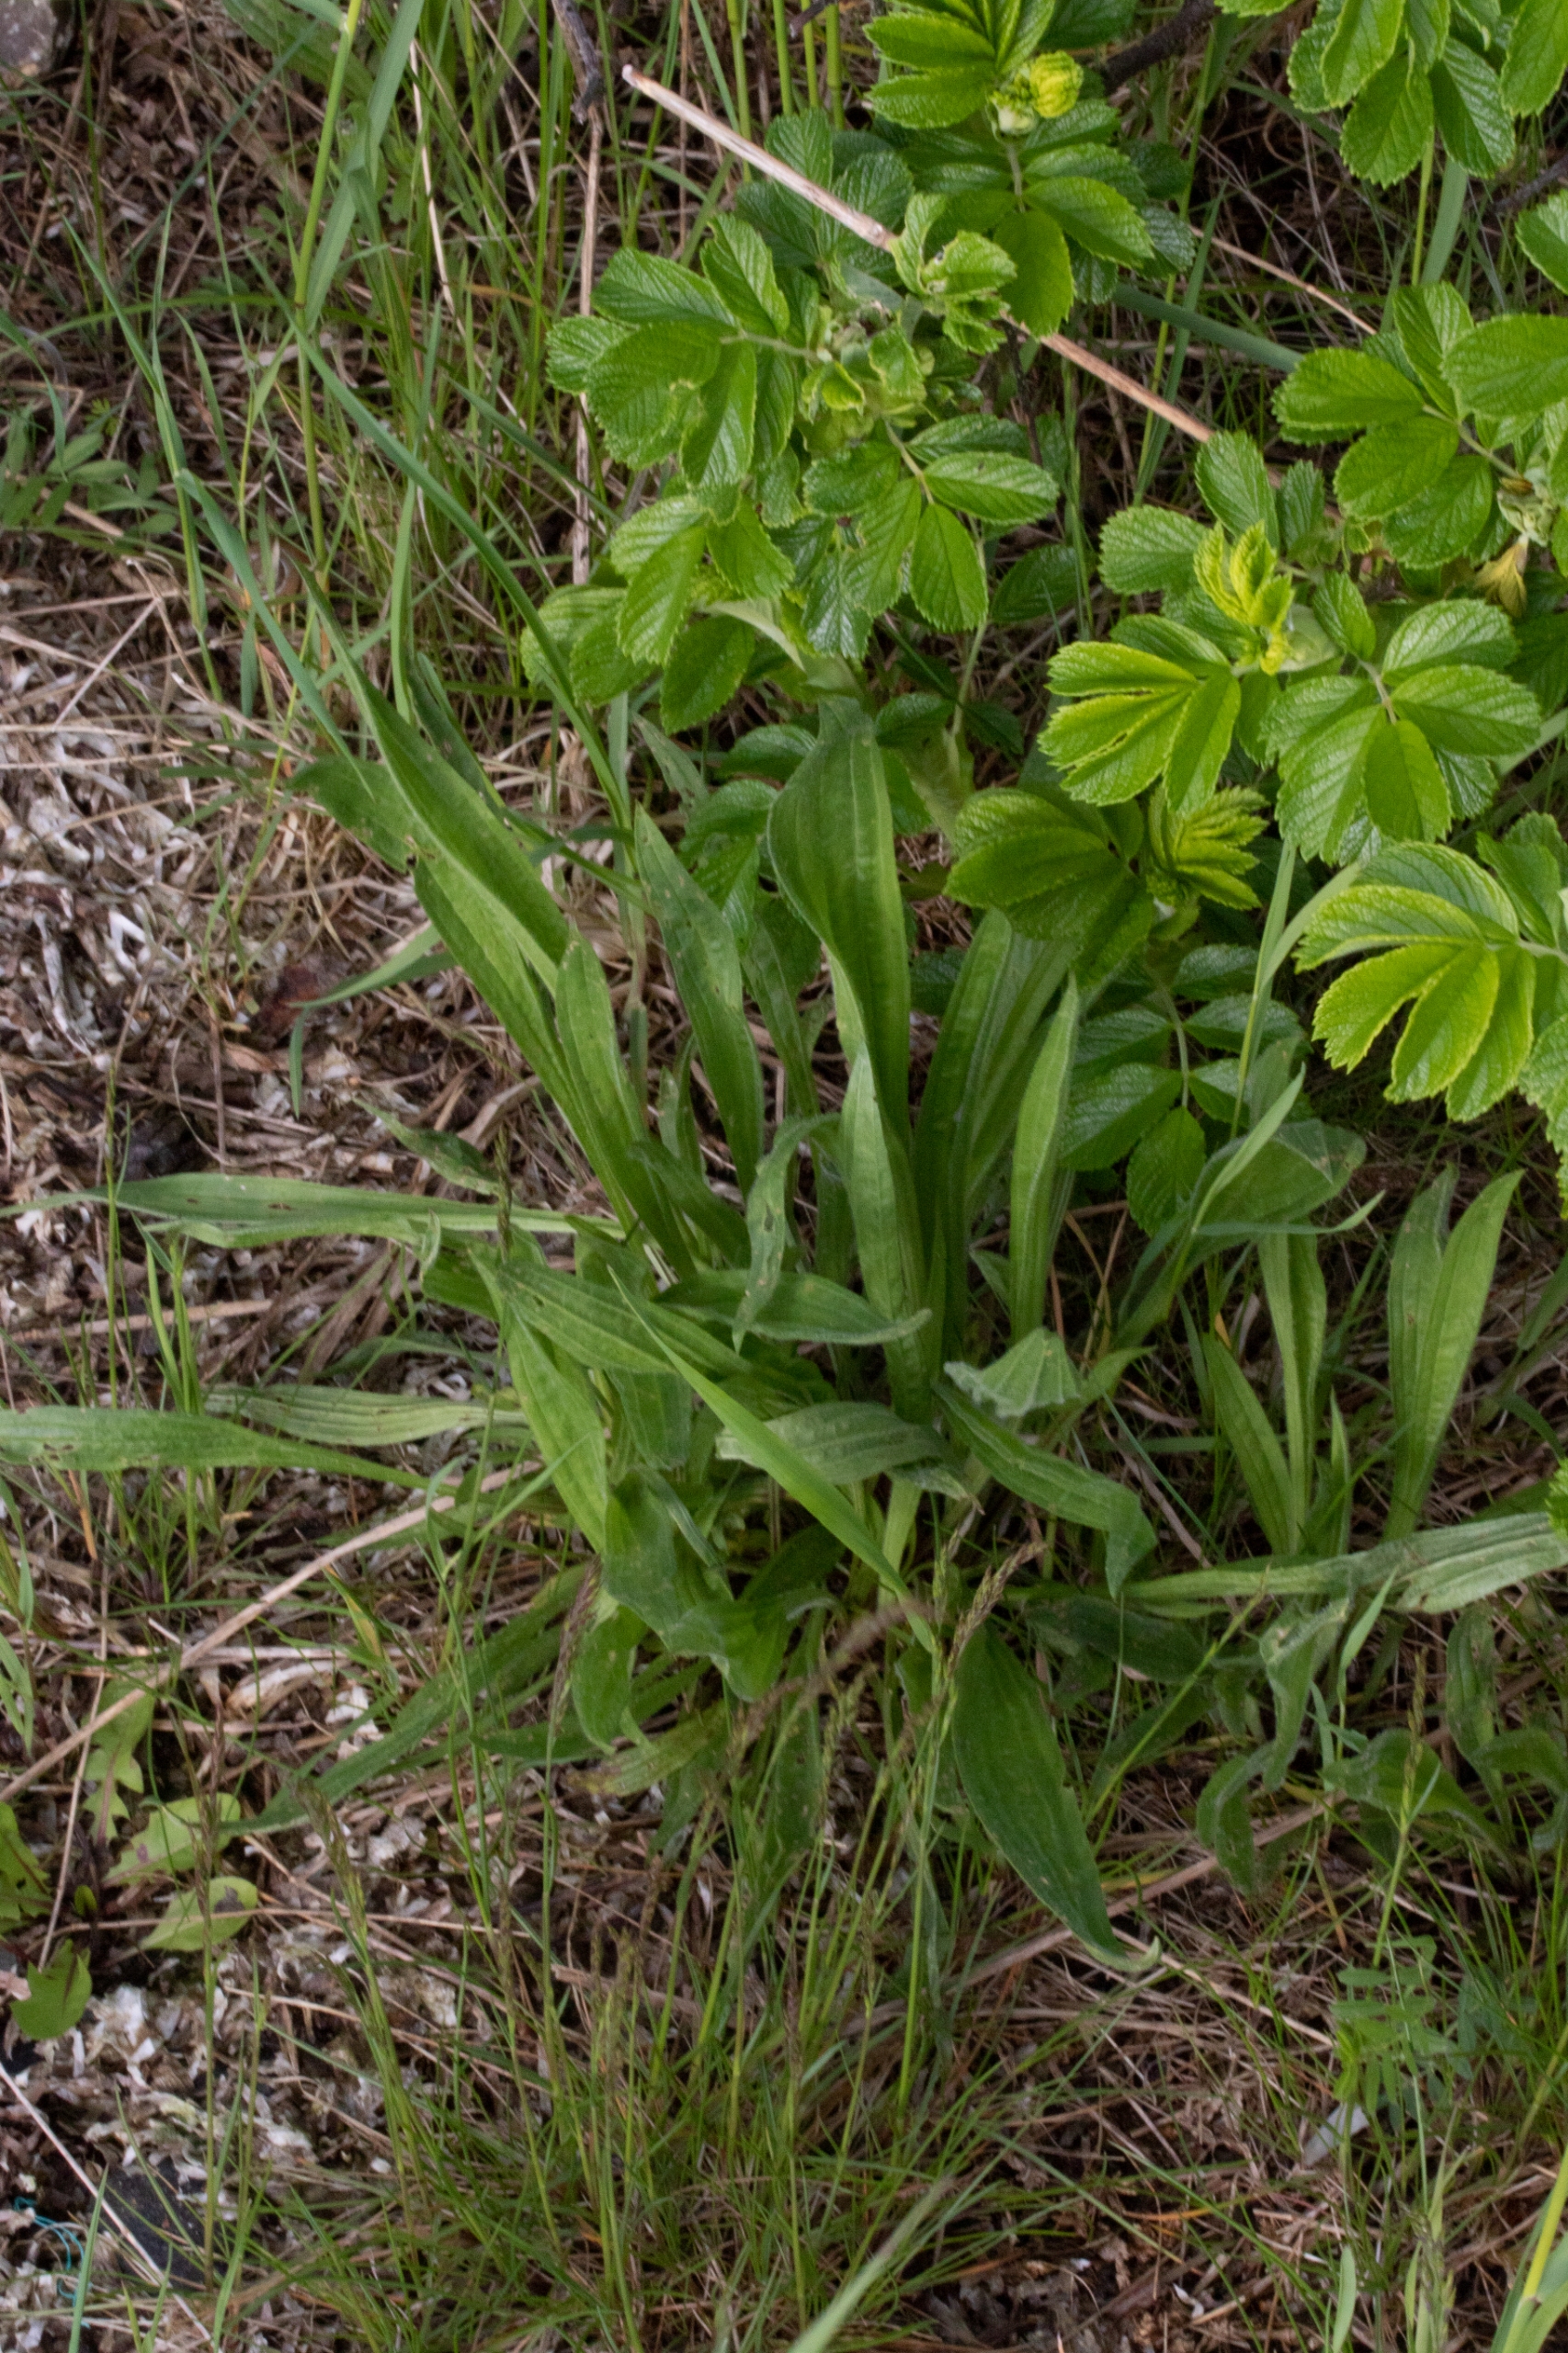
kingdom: Plantae
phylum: Tracheophyta
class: Magnoliopsida
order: Lamiales
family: Plantaginaceae
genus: Plantago
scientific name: Plantago lanceolata
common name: Lancet-vejbred
